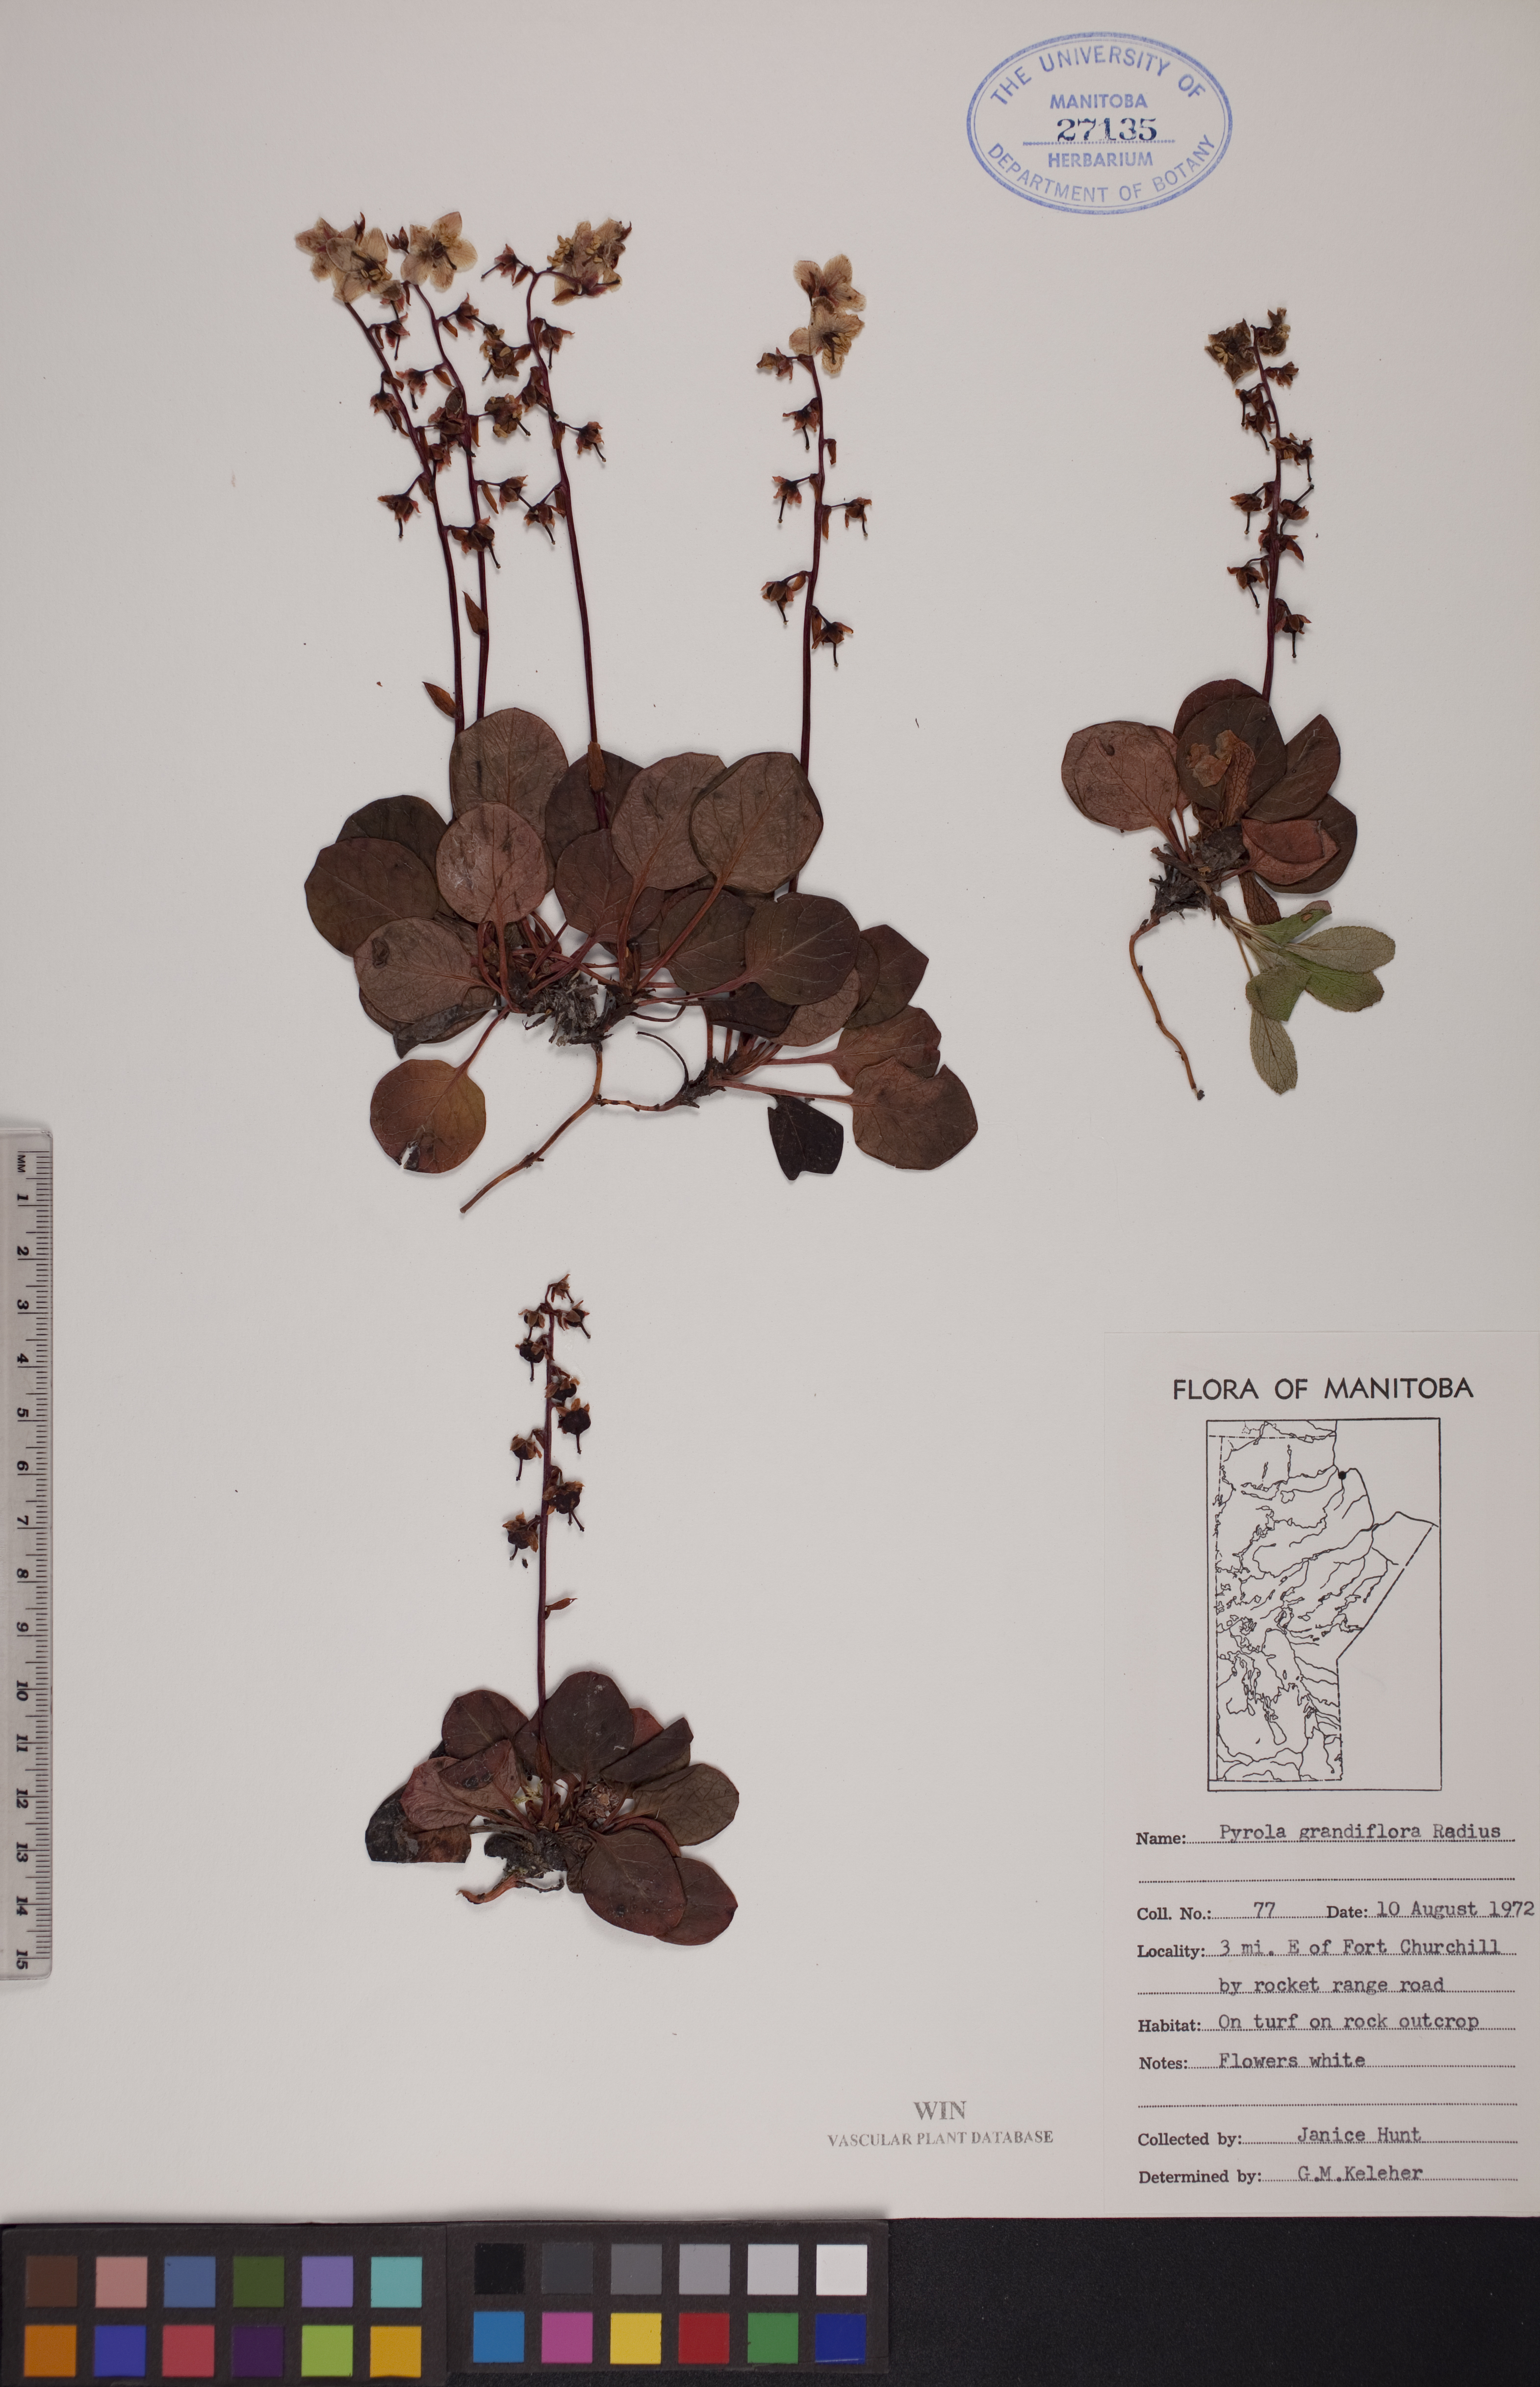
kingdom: Plantae
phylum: Tracheophyta
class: Magnoliopsida
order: Ericales
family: Ericaceae
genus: Pyrola
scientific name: Pyrola grandiflora
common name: Arctic pyrola
